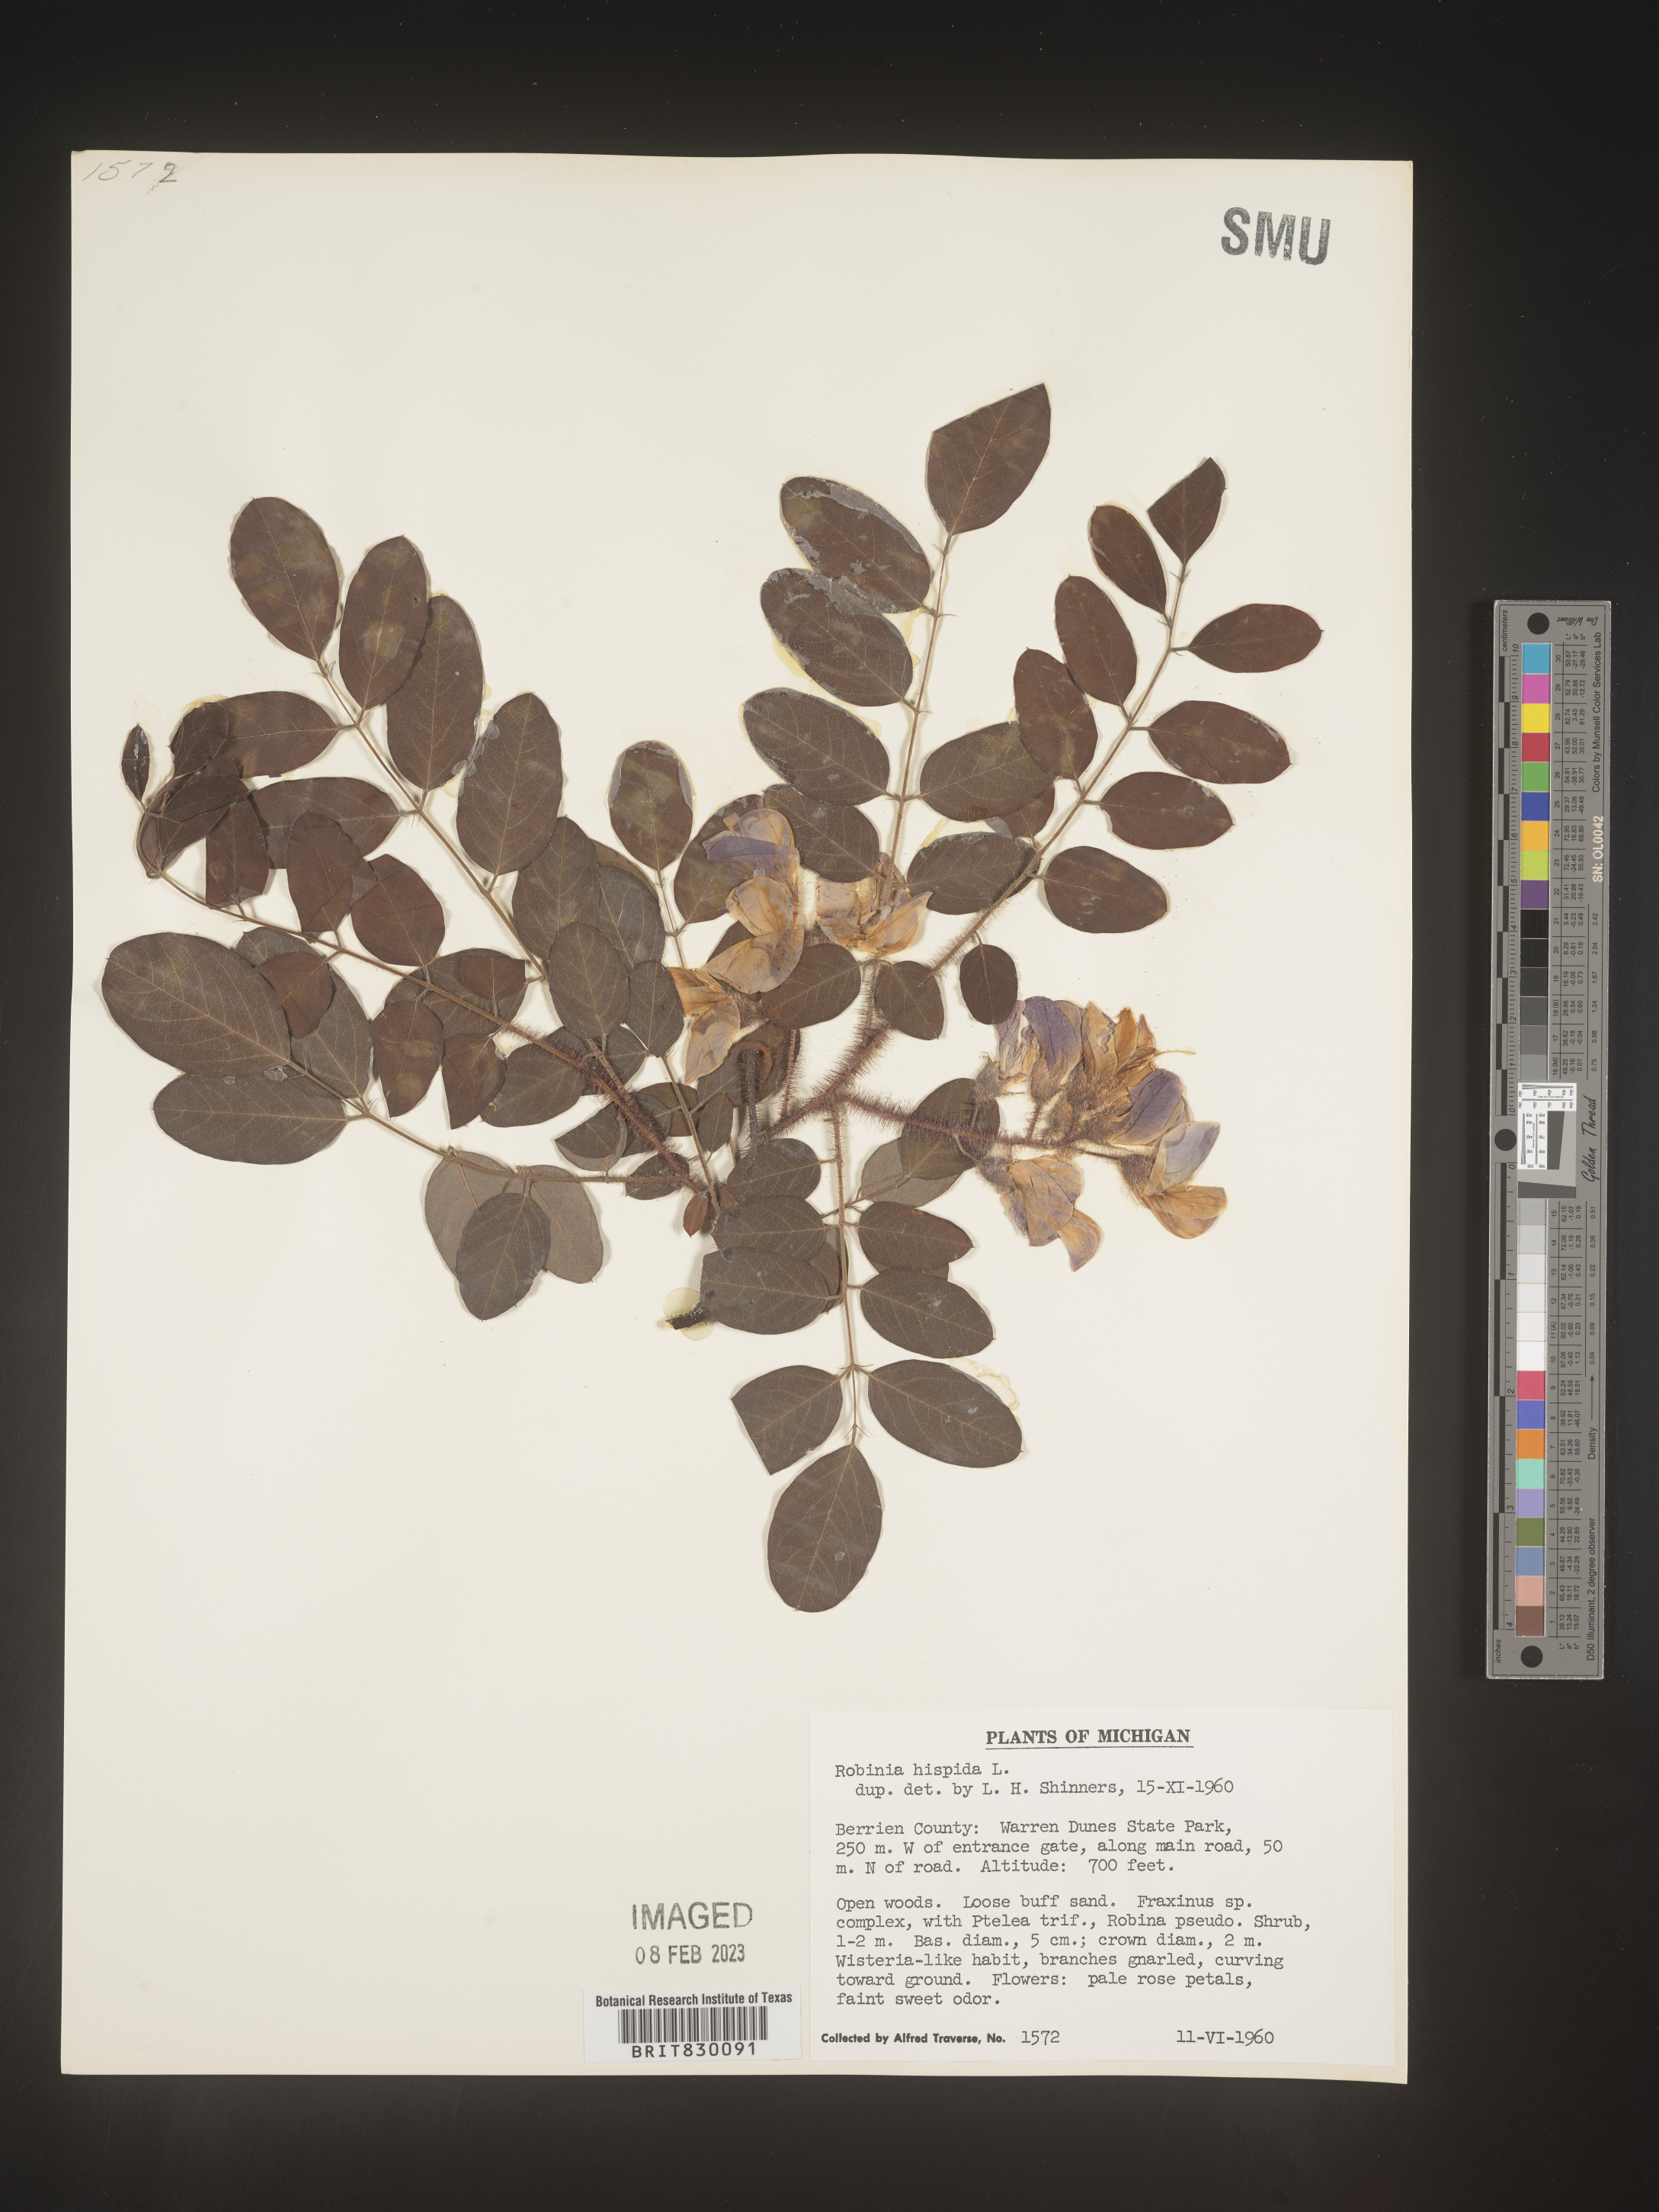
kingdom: Plantae
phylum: Tracheophyta
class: Magnoliopsida
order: Fabales
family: Fabaceae
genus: Robinia
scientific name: Robinia hispida
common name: Bristly locust
